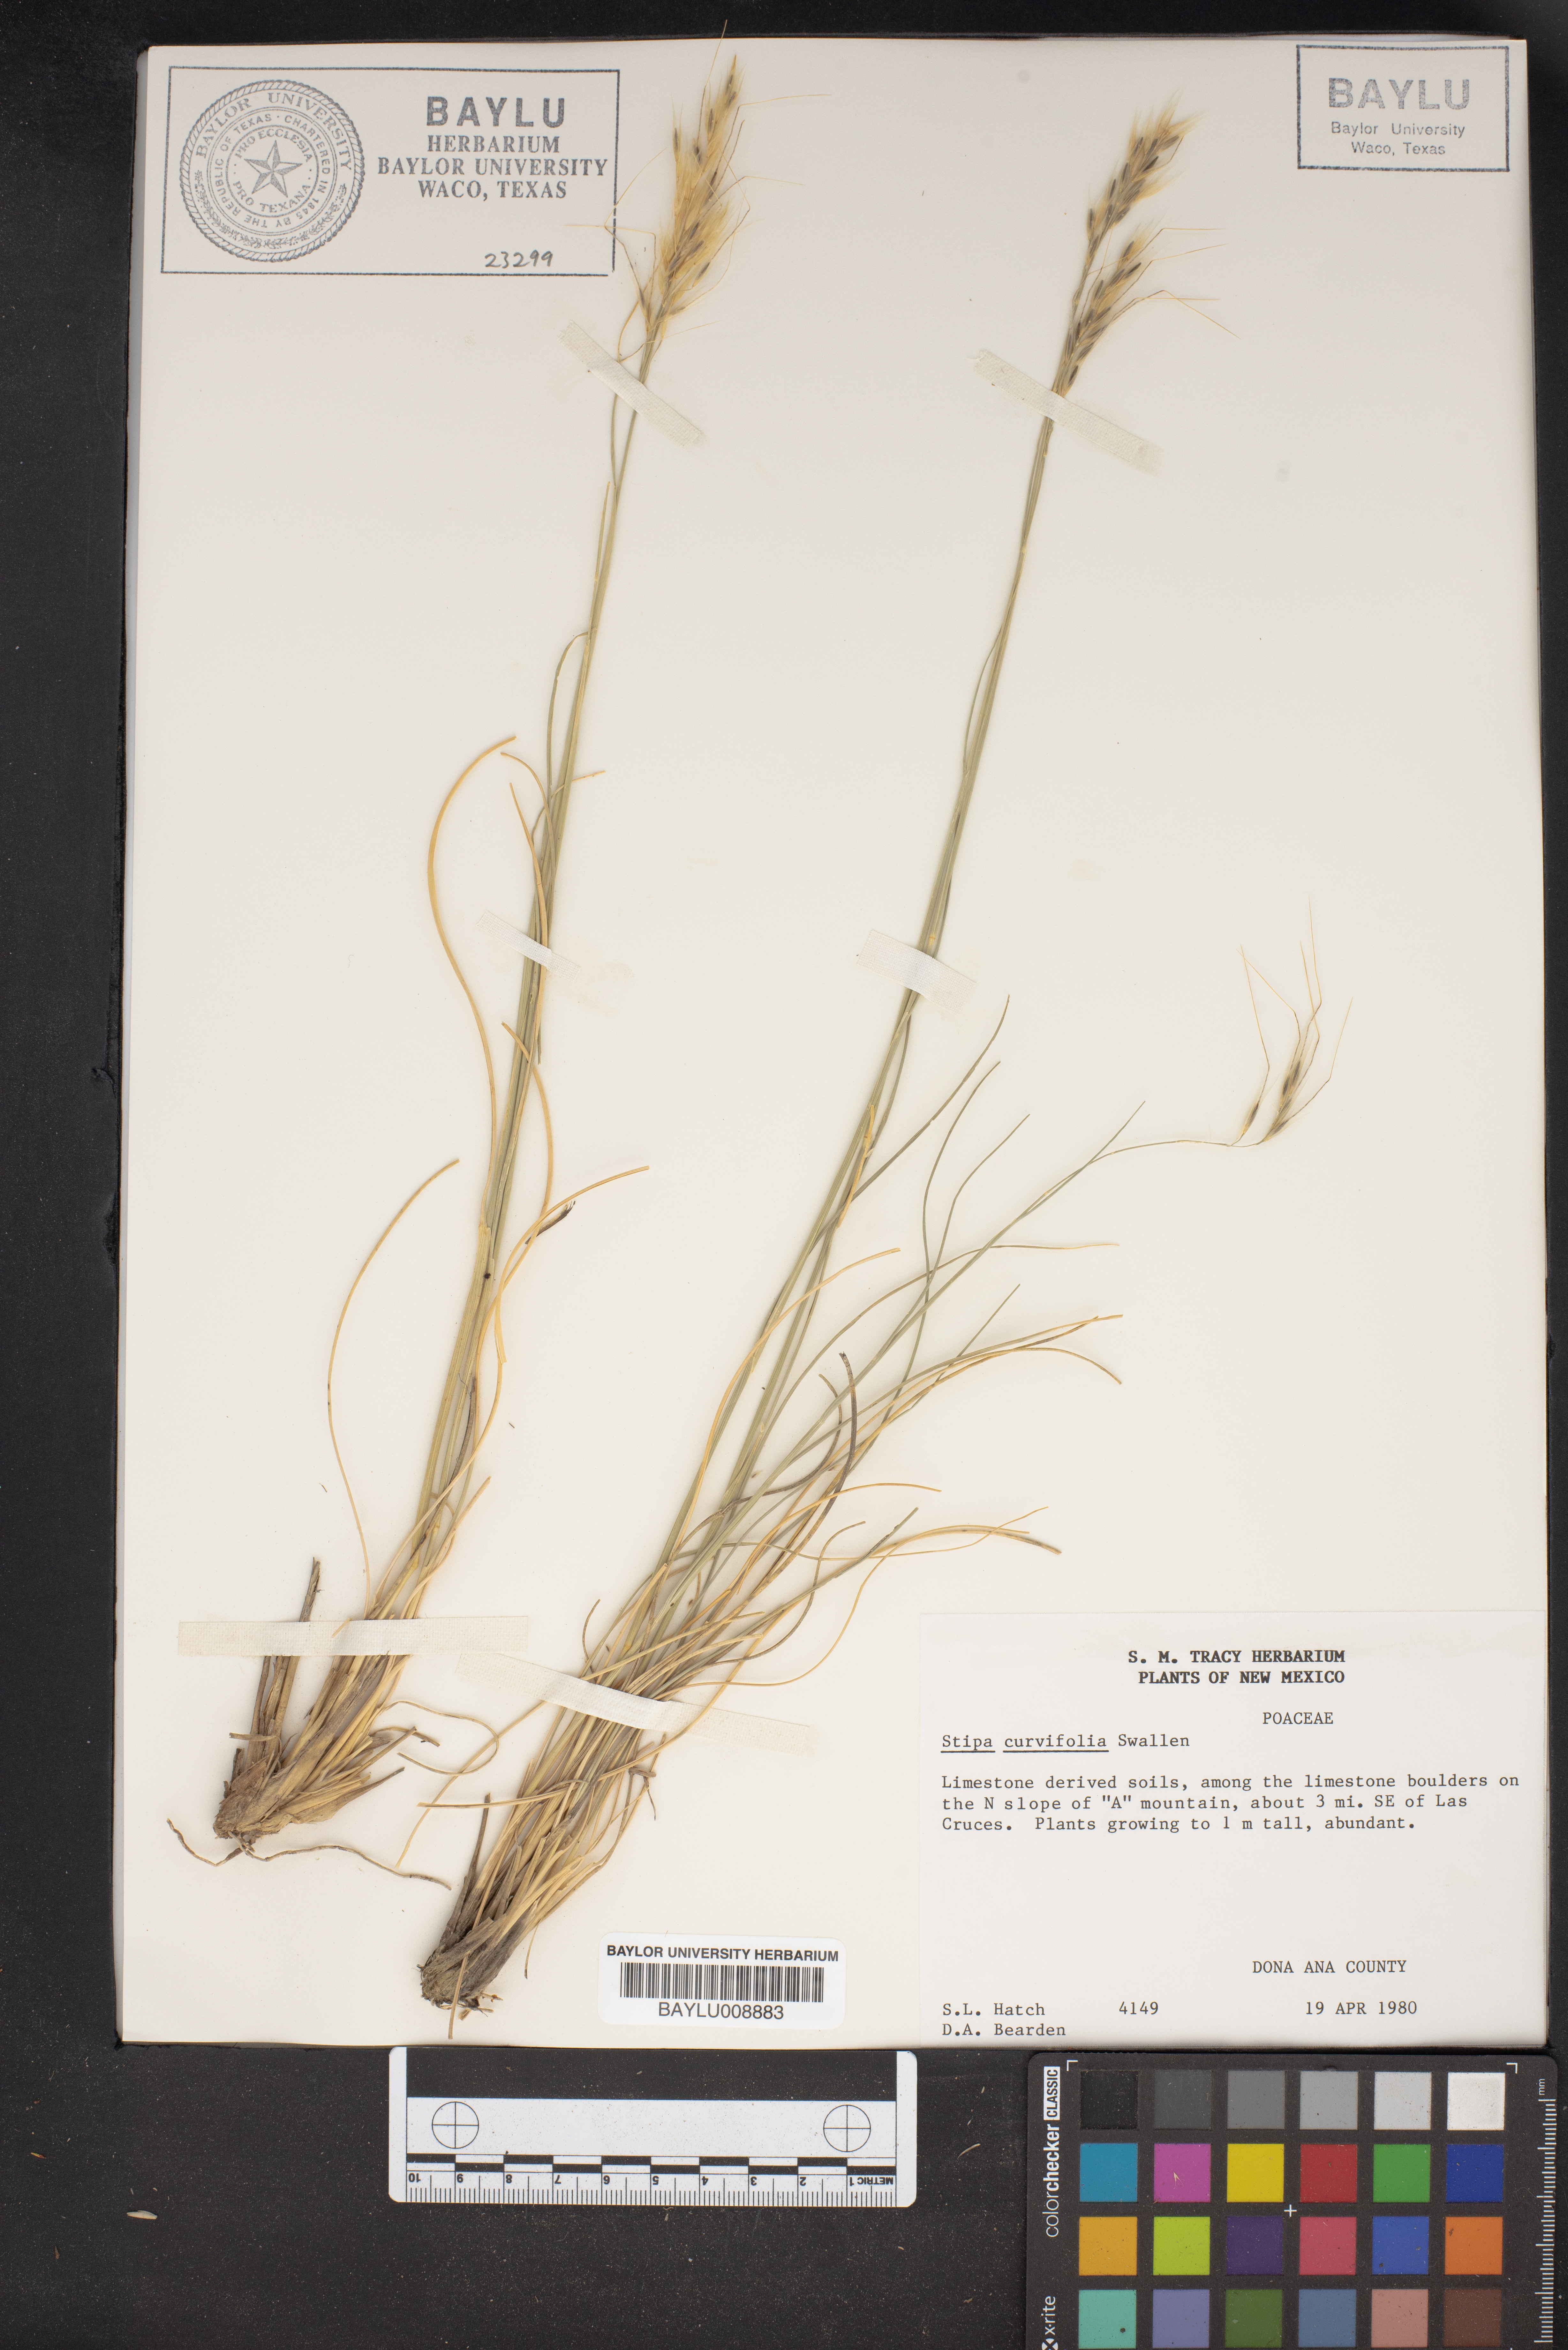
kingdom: Plantae
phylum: Tracheophyta
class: Liliopsida
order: Poales
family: Poaceae
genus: Eriocoma
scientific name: Eriocoma curvifolia
